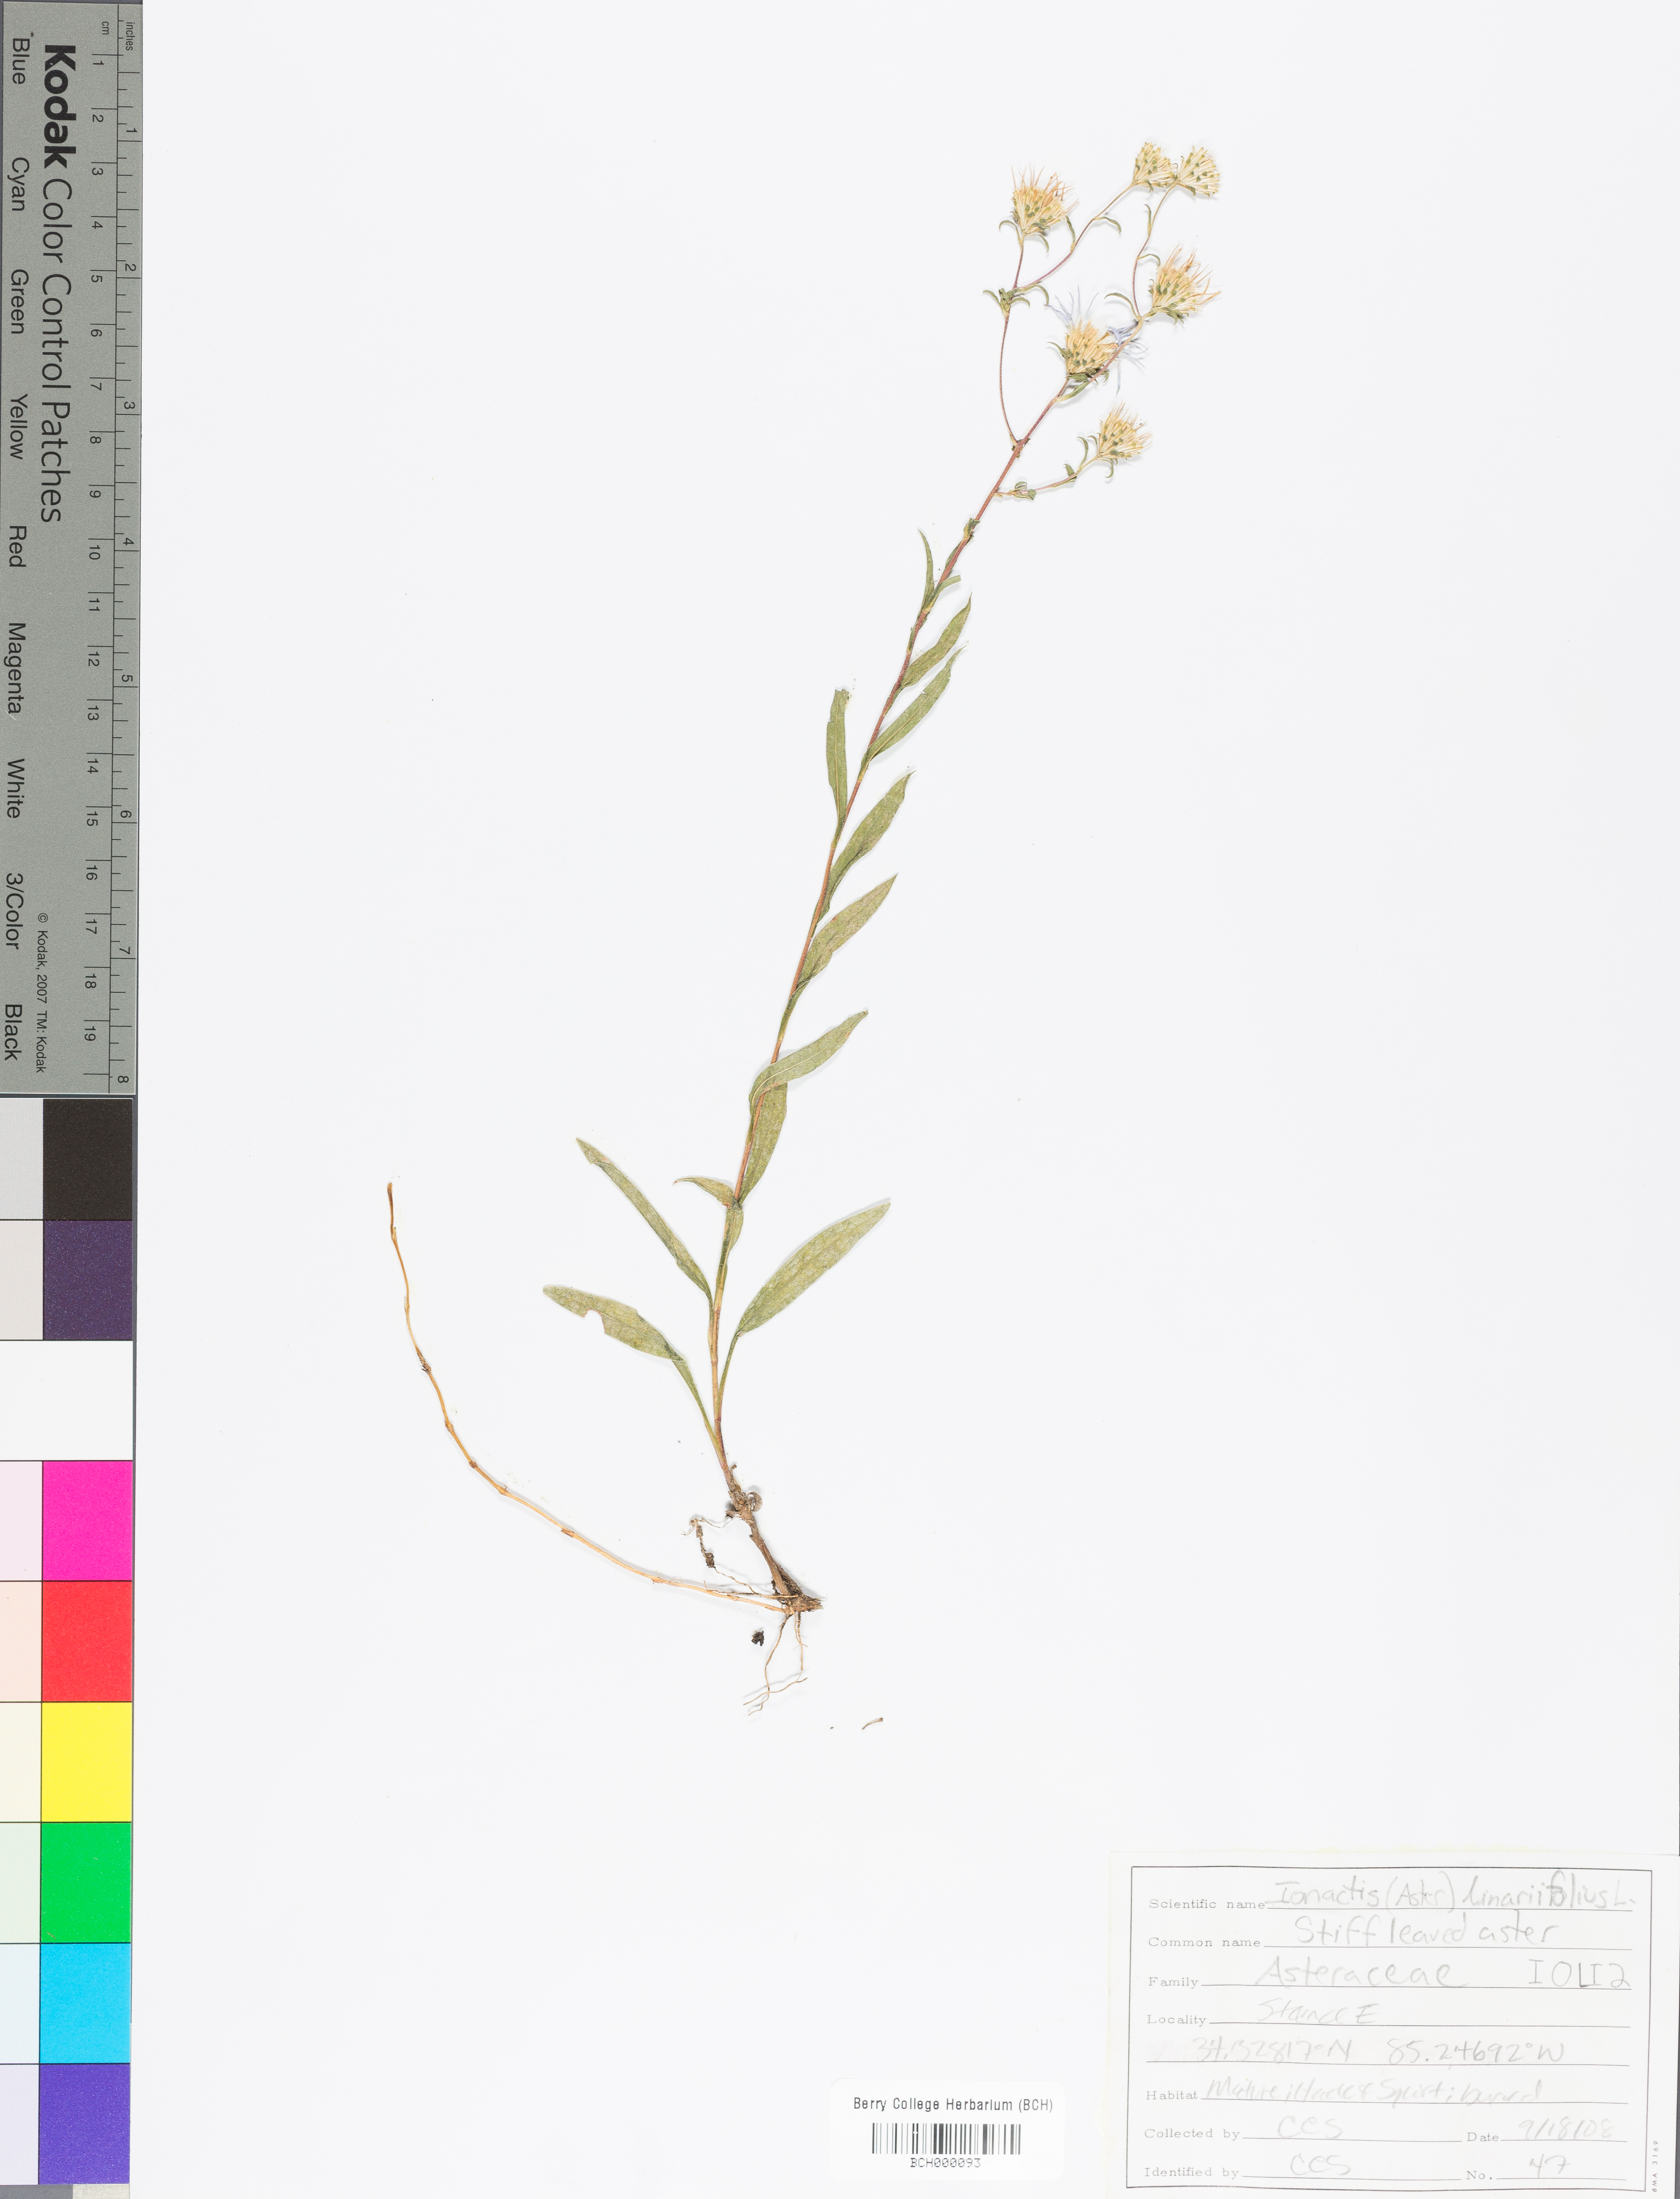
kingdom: Plantae
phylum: Tracheophyta
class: Magnoliopsida
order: Asterales
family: Asteraceae
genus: Ionactis
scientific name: Ionactis linariifolia
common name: Flax-leaf aster
